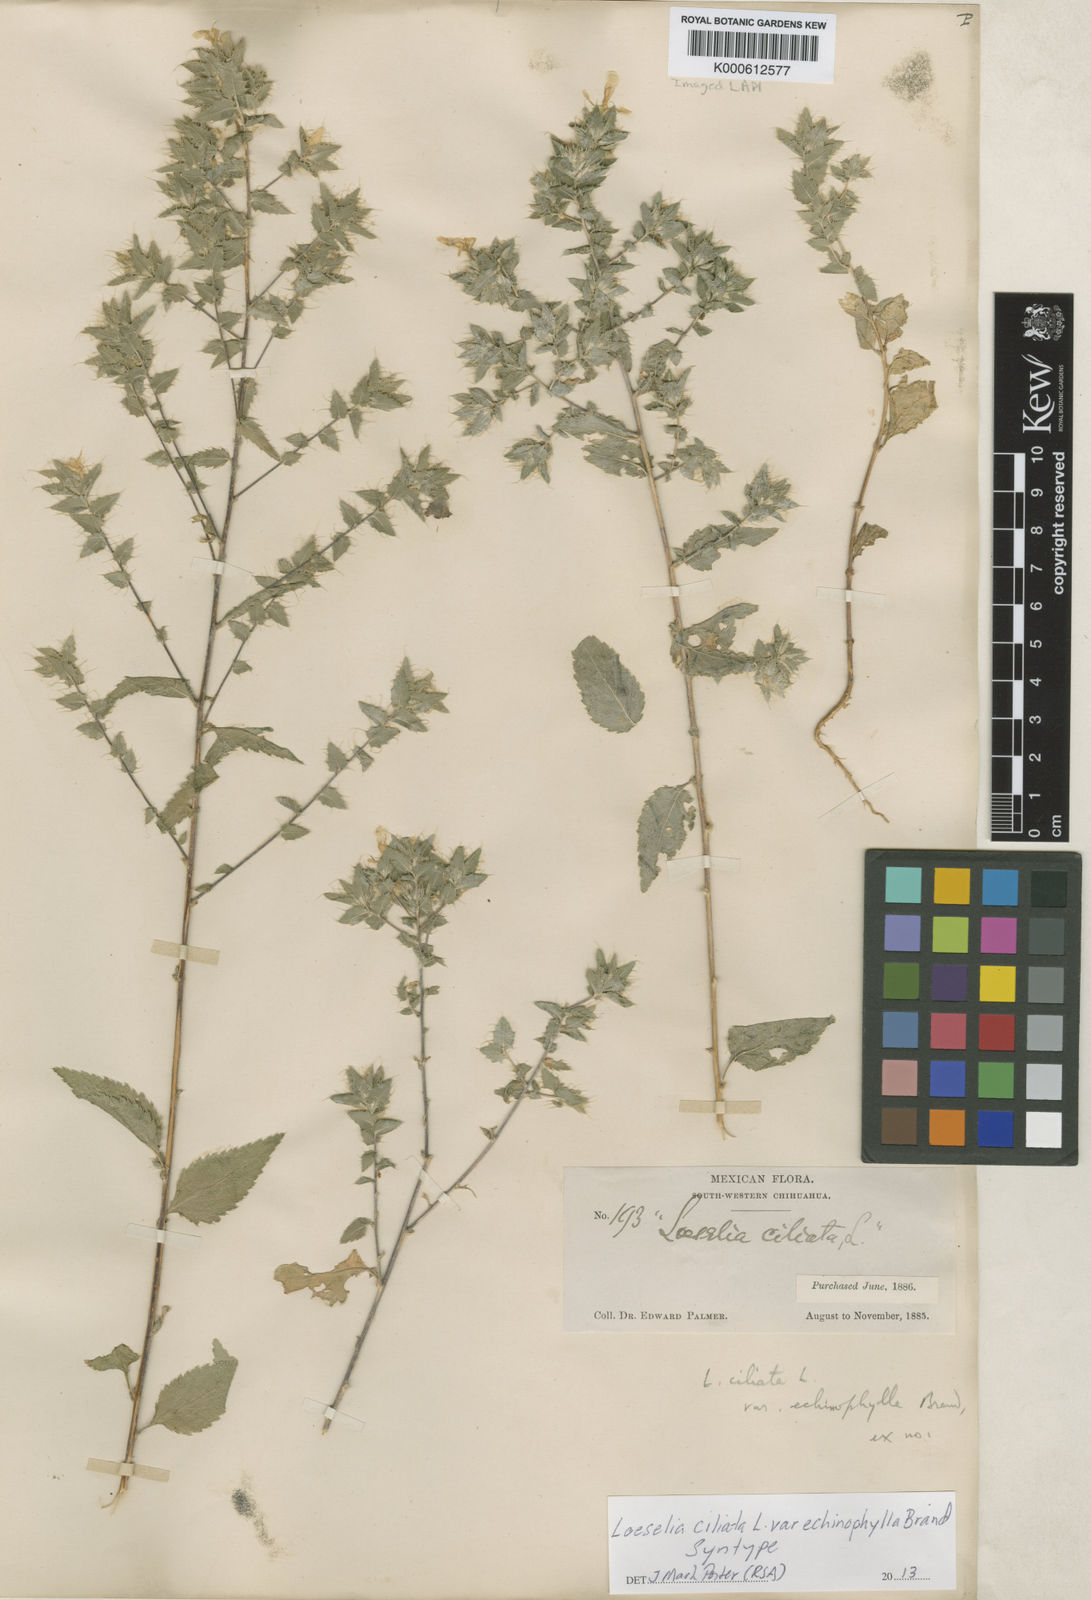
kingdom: Plantae
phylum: Tracheophyta
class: Magnoliopsida
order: Ericales
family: Polemoniaceae
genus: Loeselia
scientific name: Loeselia ciliata
